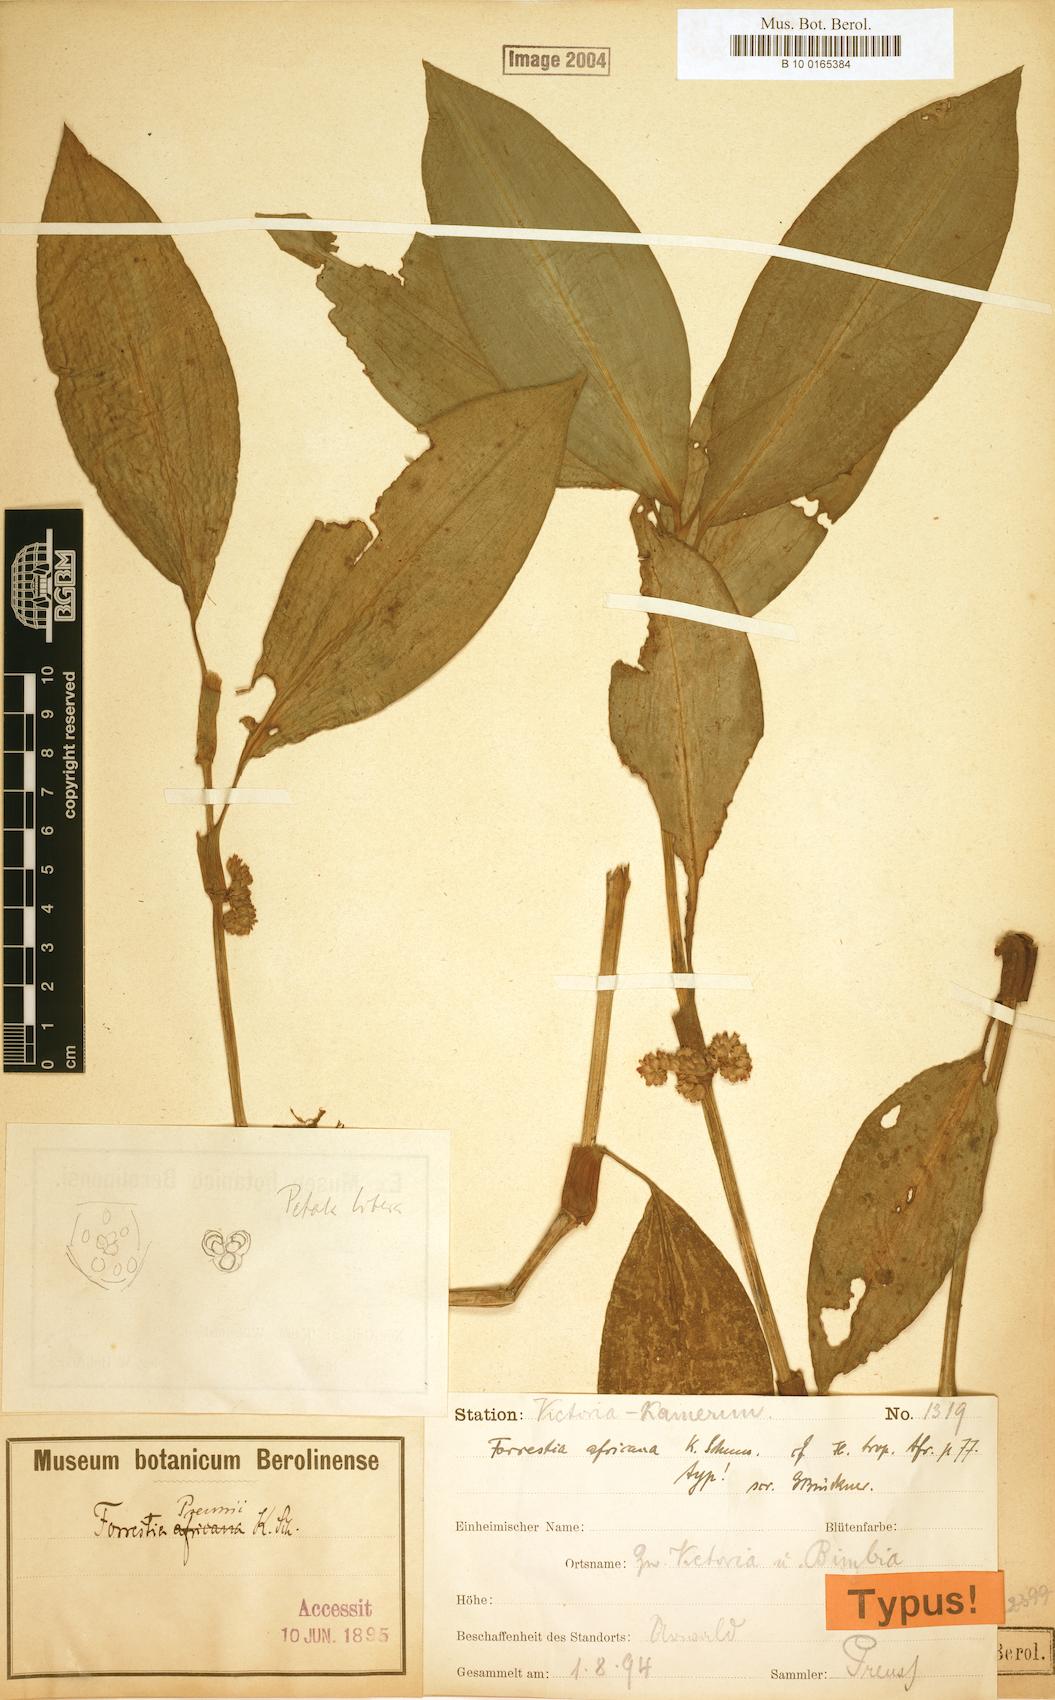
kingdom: Plantae
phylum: Tracheophyta
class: Liliopsida
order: Commelinales
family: Commelinaceae
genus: Amischotolype
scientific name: Amischotolype tenuis
